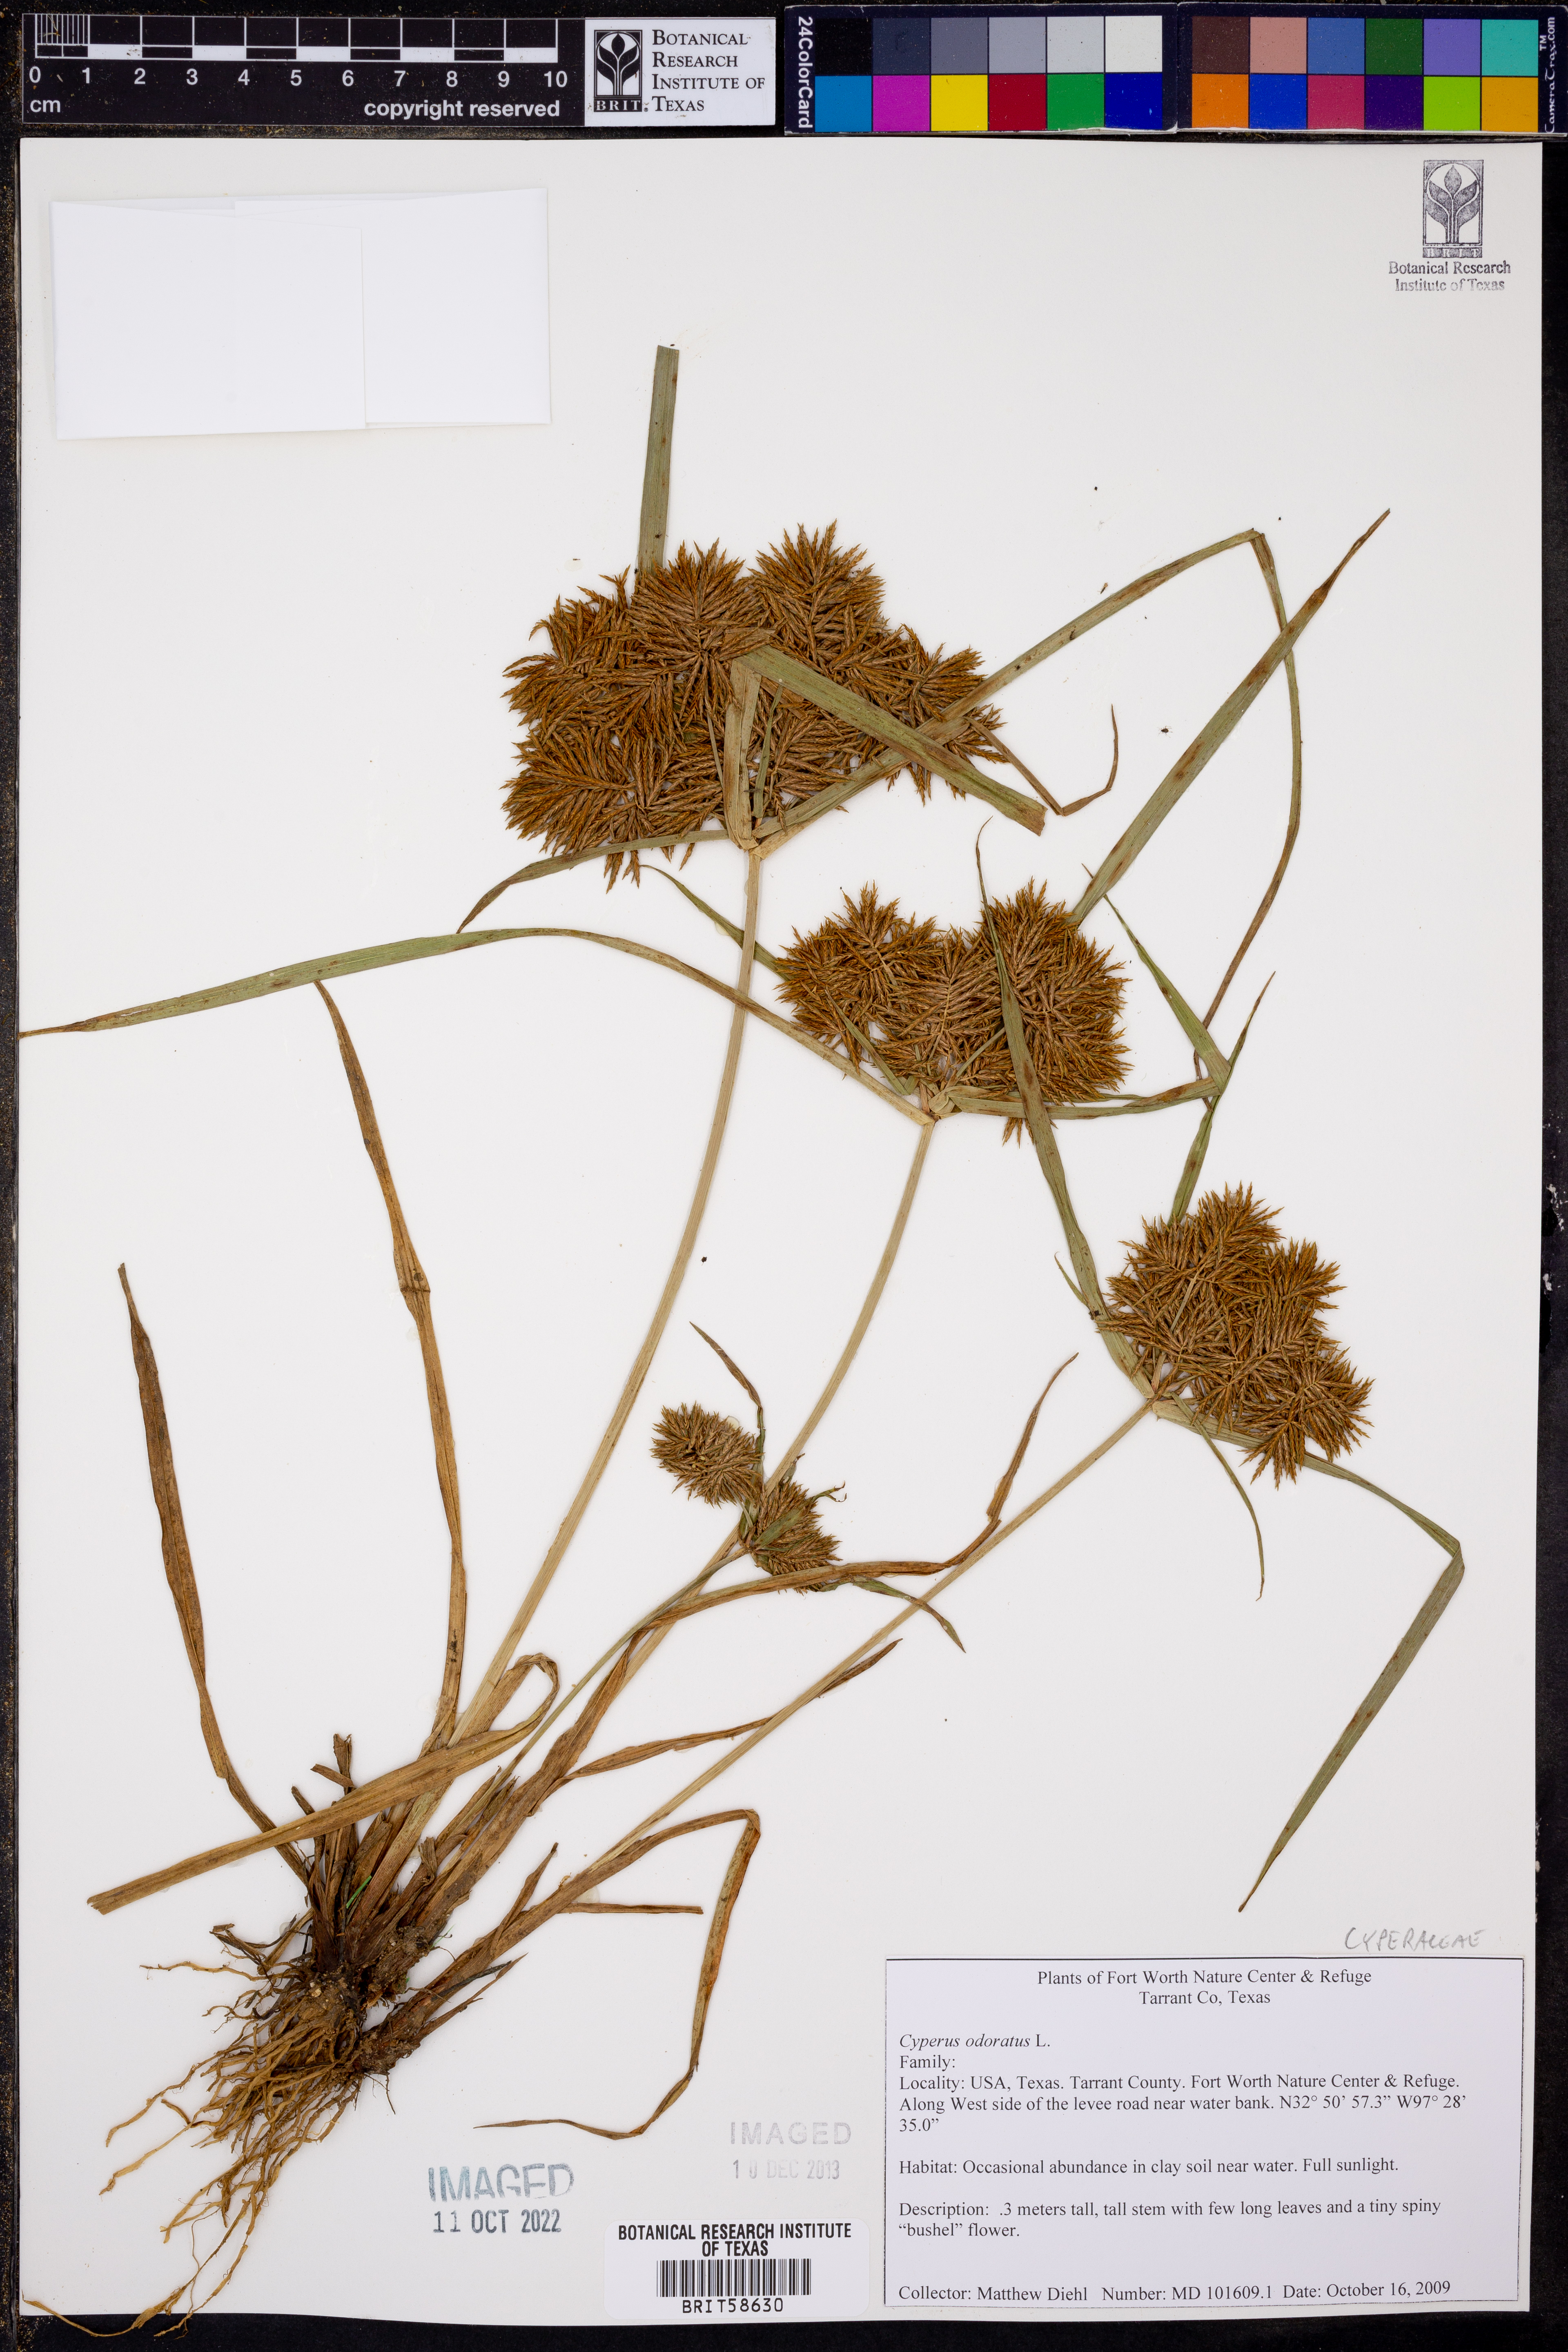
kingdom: Plantae
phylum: Tracheophyta
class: Liliopsida
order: Poales
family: Cyperaceae
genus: Cyperus
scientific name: Cyperus odoratus
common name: Fragrant flatsedge
